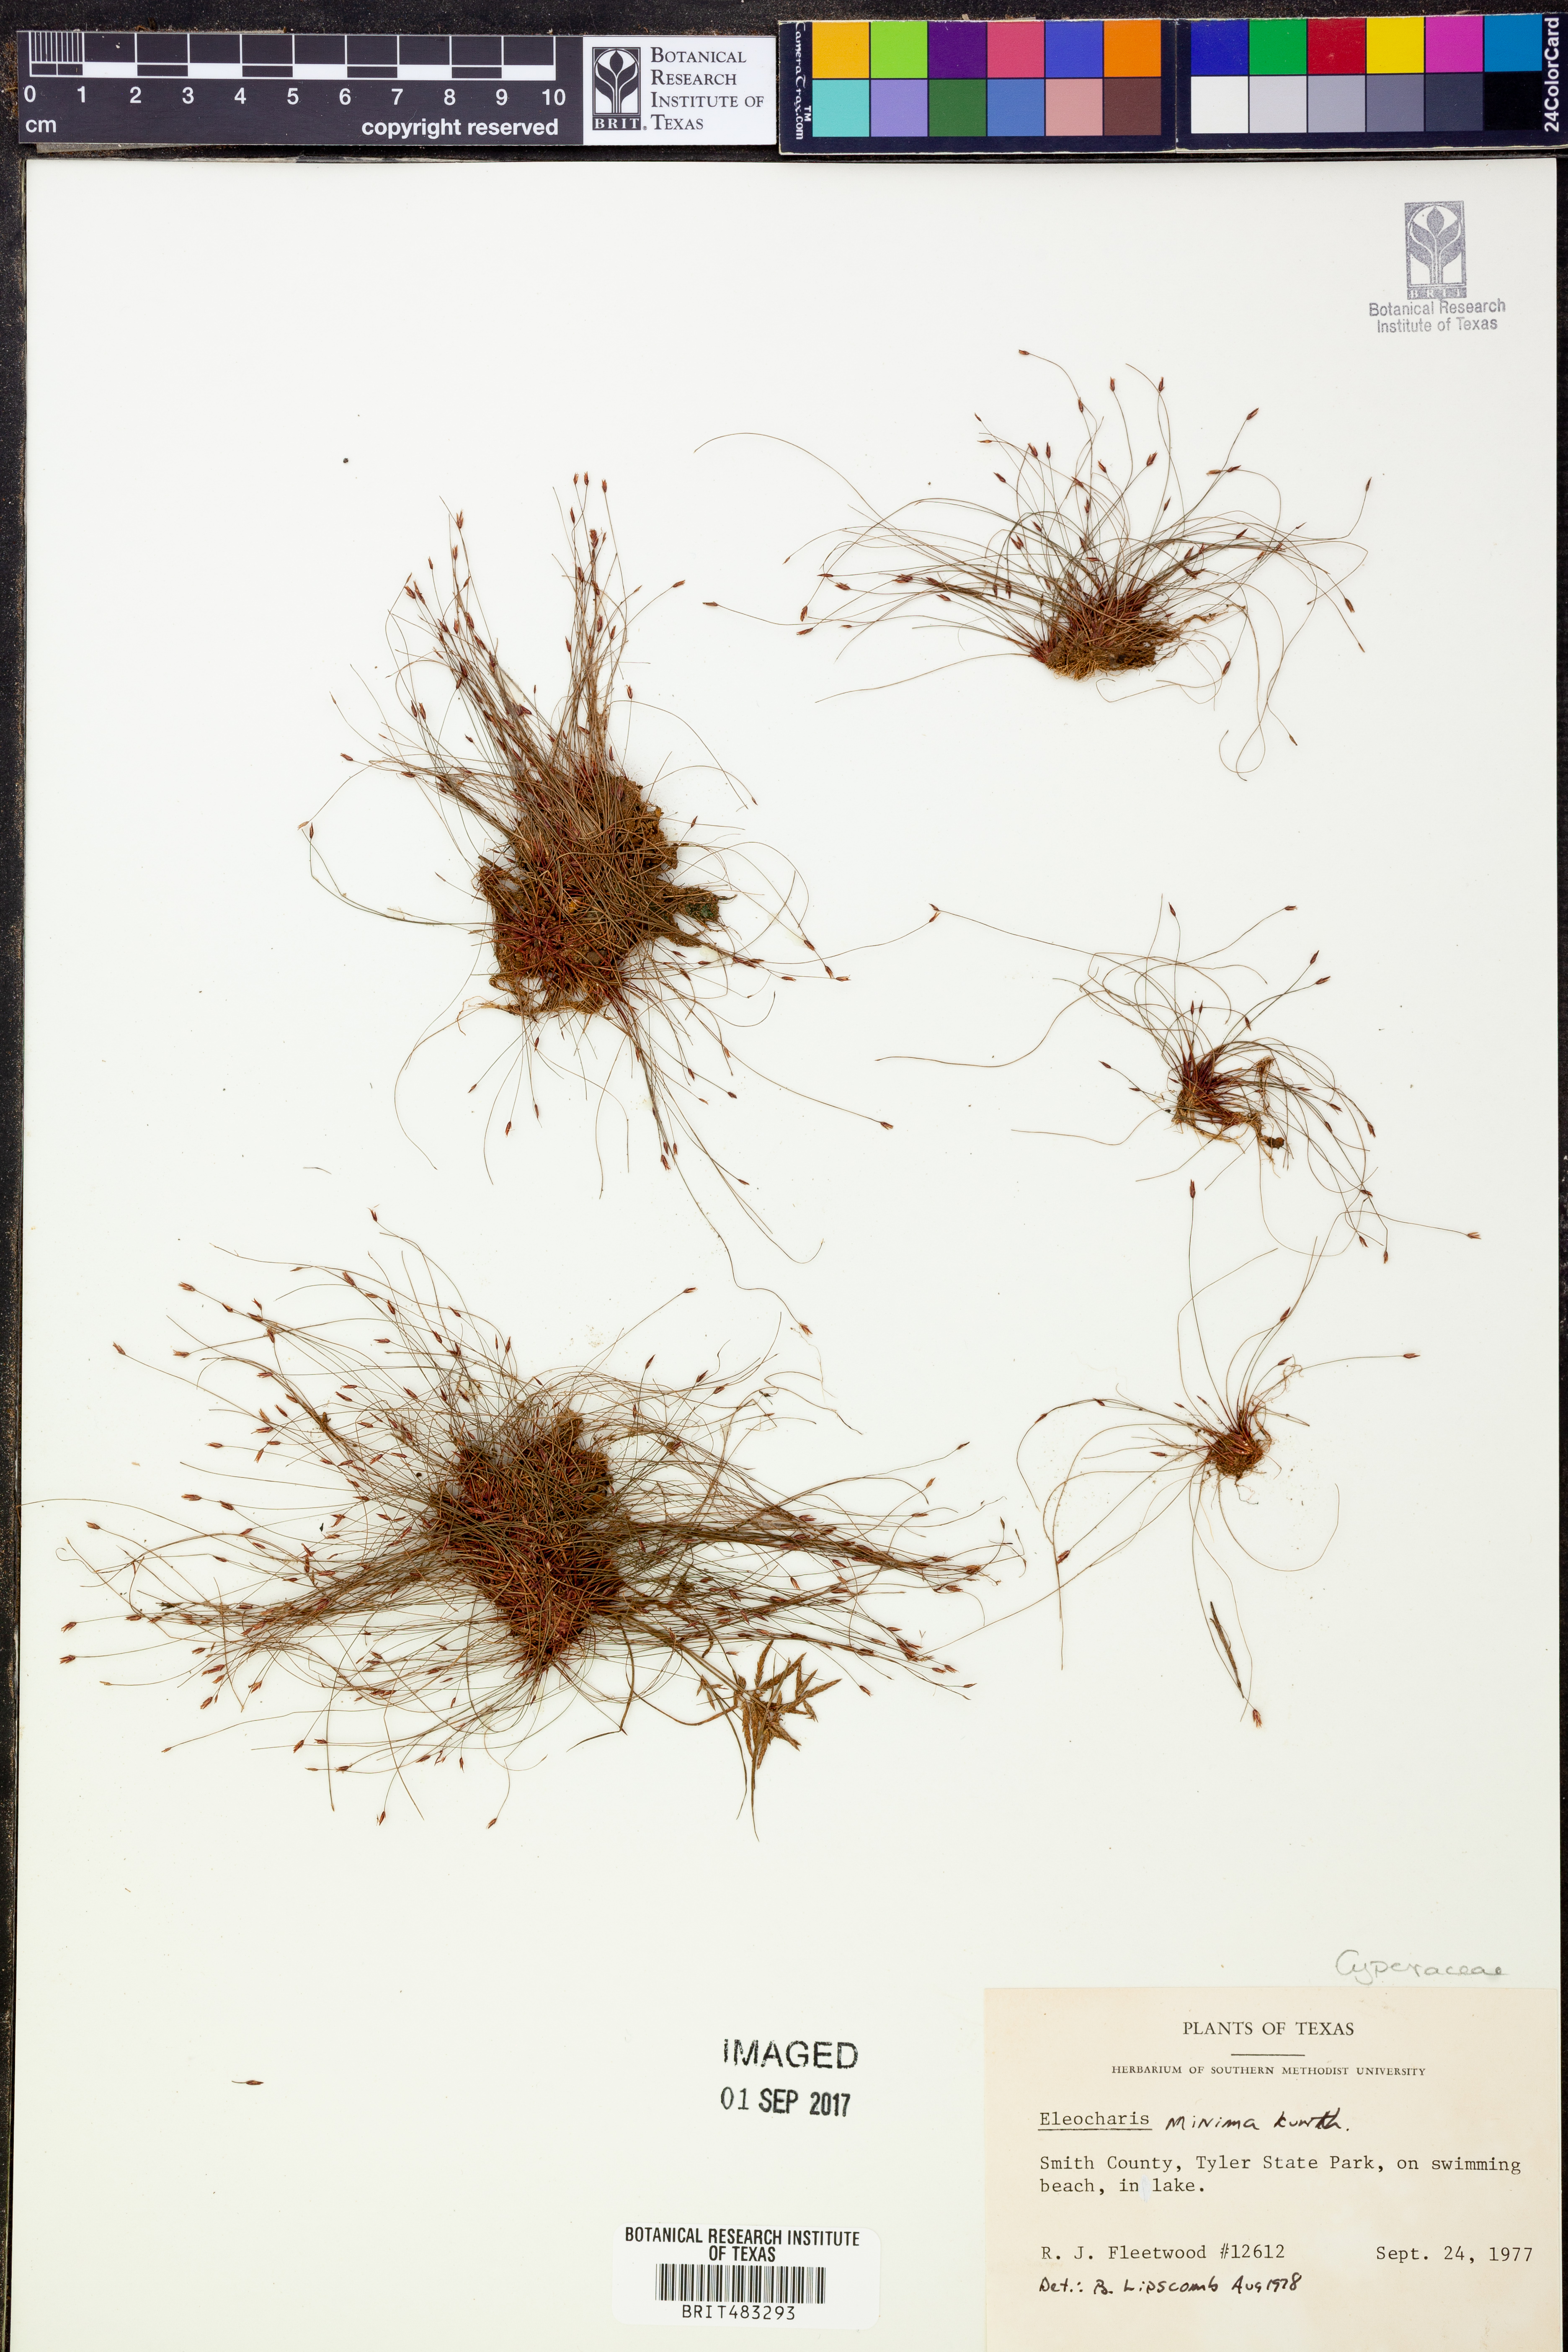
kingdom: Plantae
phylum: Tracheophyta
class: Liliopsida
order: Poales
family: Cyperaceae
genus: Eleocharis
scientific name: Eleocharis minima
